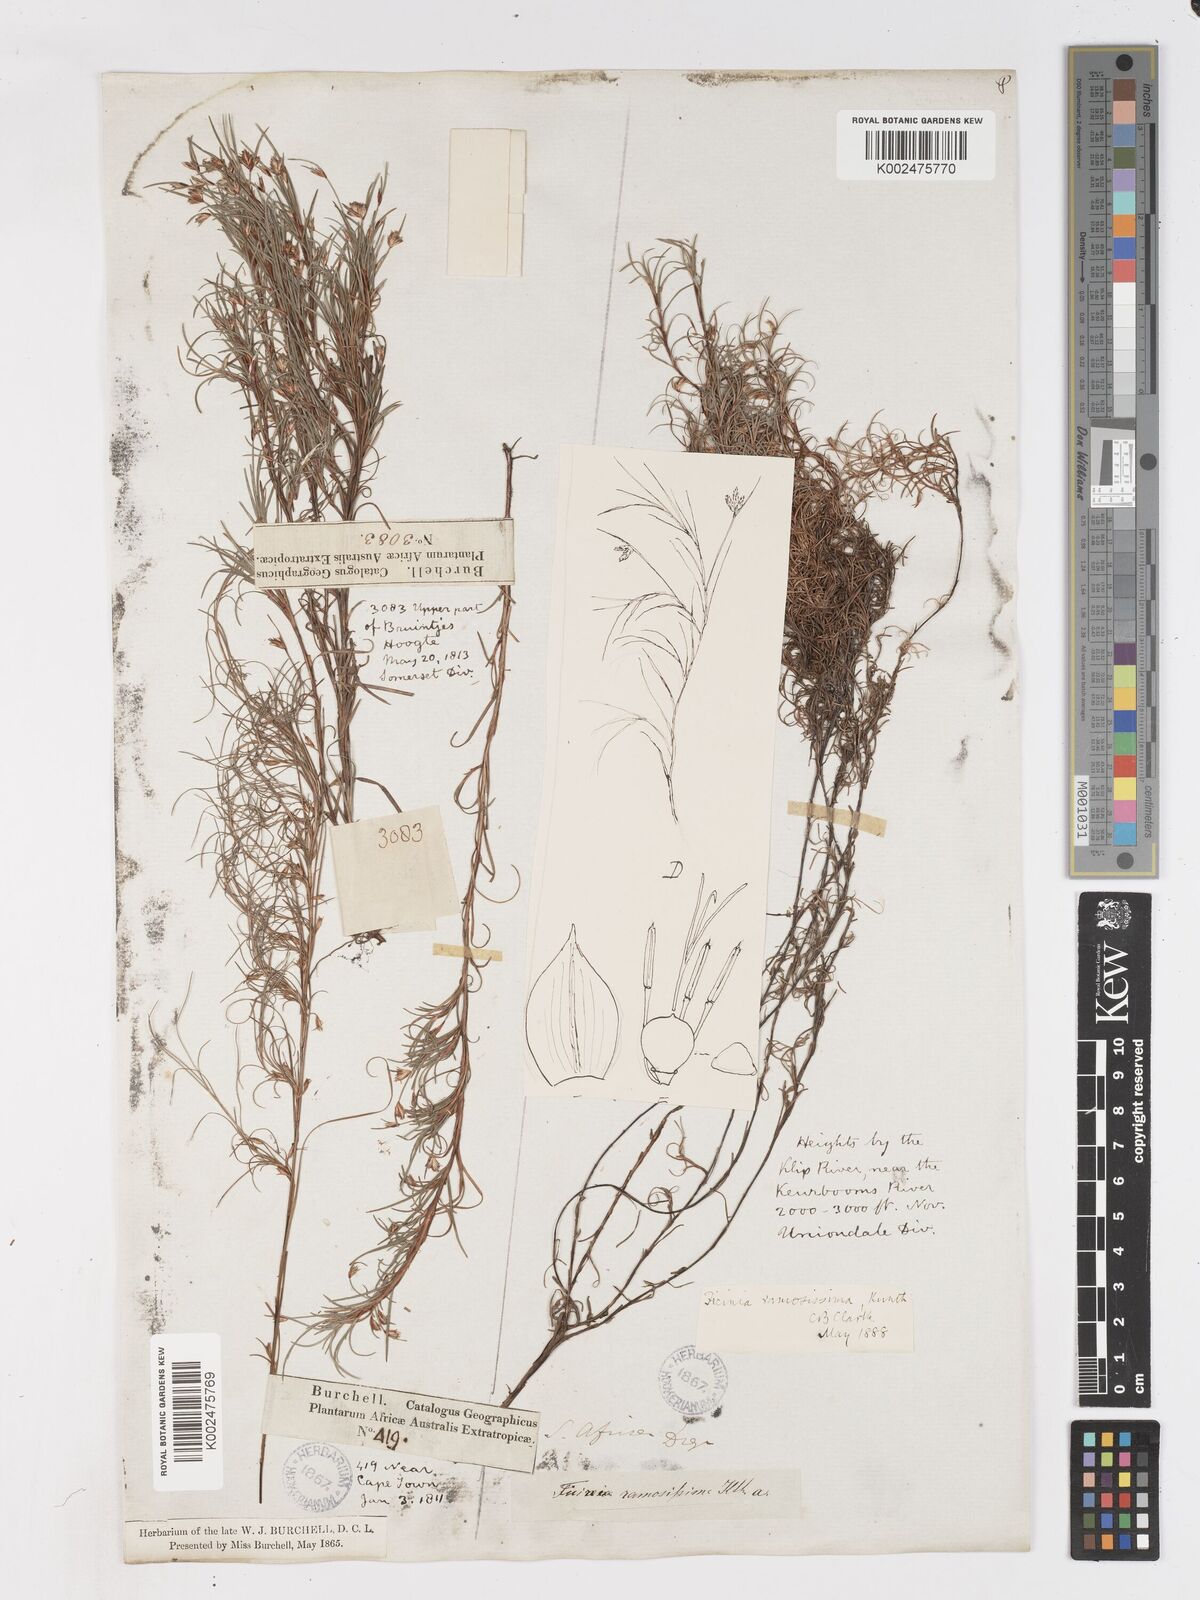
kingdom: Plantae
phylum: Tracheophyta
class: Liliopsida
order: Poales
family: Cyperaceae
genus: Ficinia
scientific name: Ficinia ramosissima
